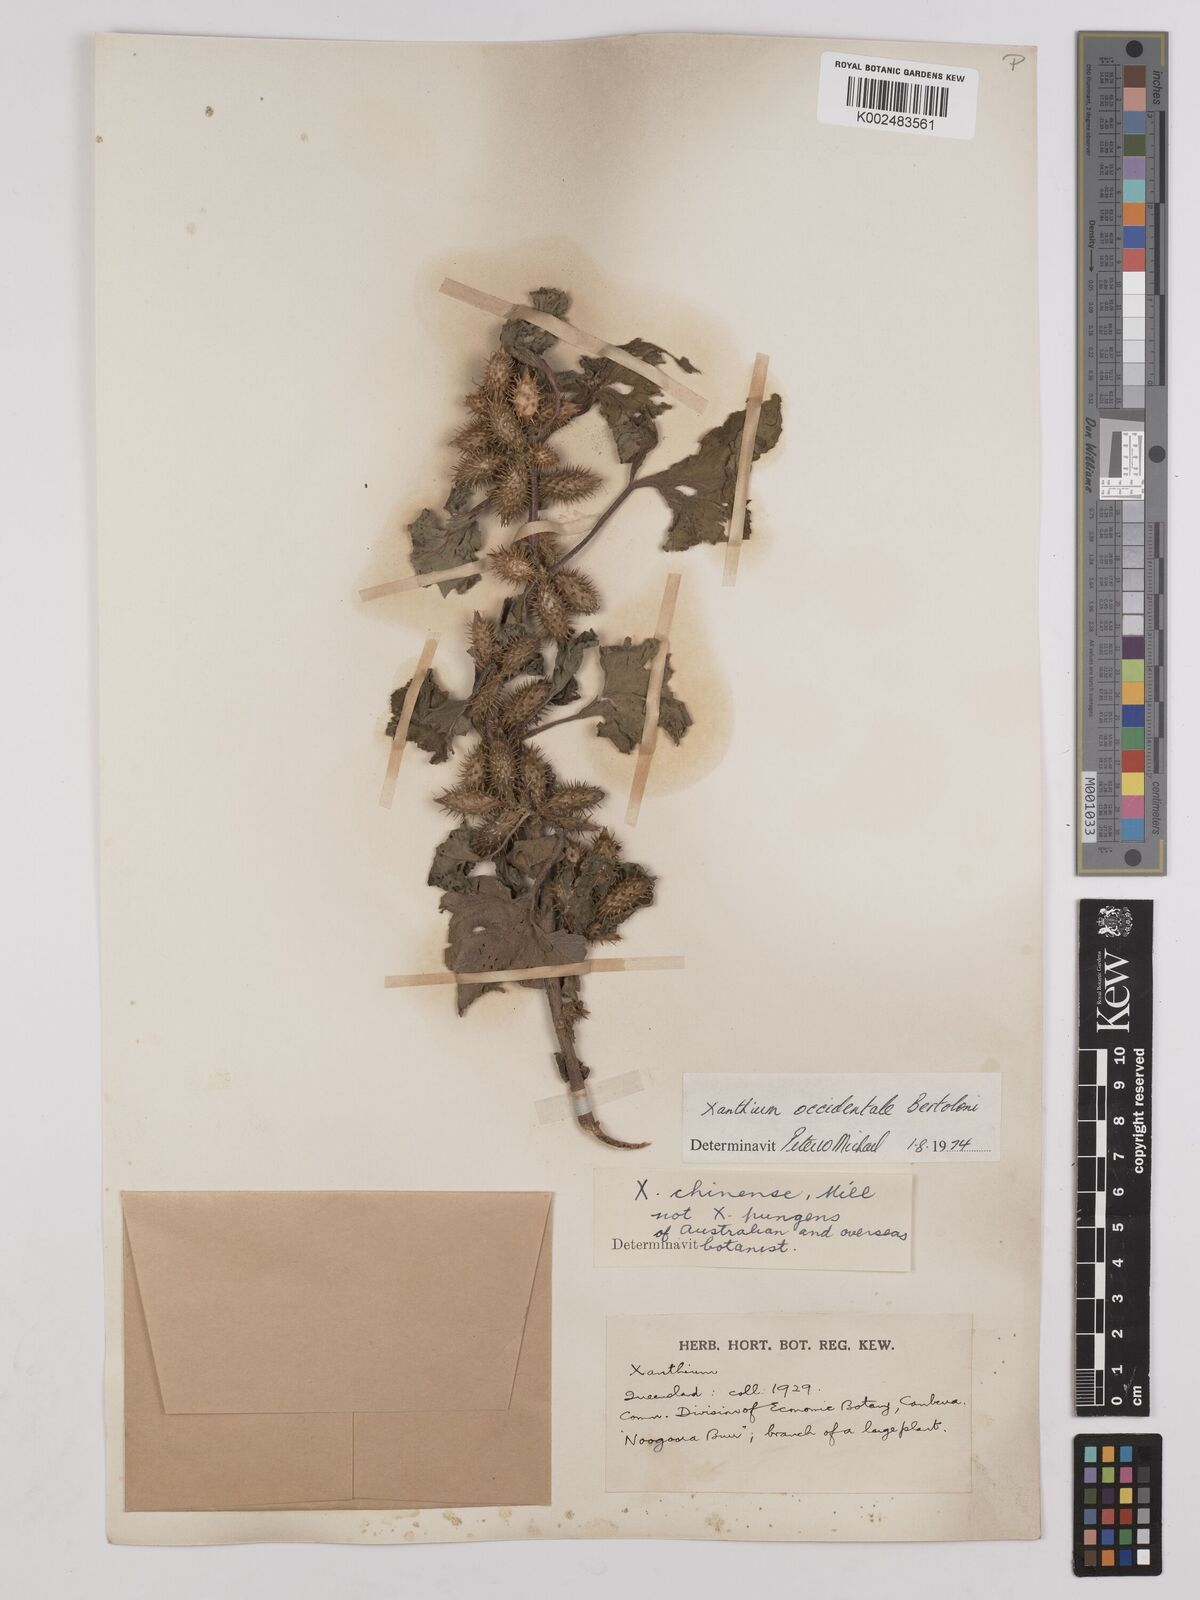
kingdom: Plantae
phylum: Tracheophyta
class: Magnoliopsida
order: Asterales
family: Asteraceae
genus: Xanthium
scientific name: Xanthium occidentale
